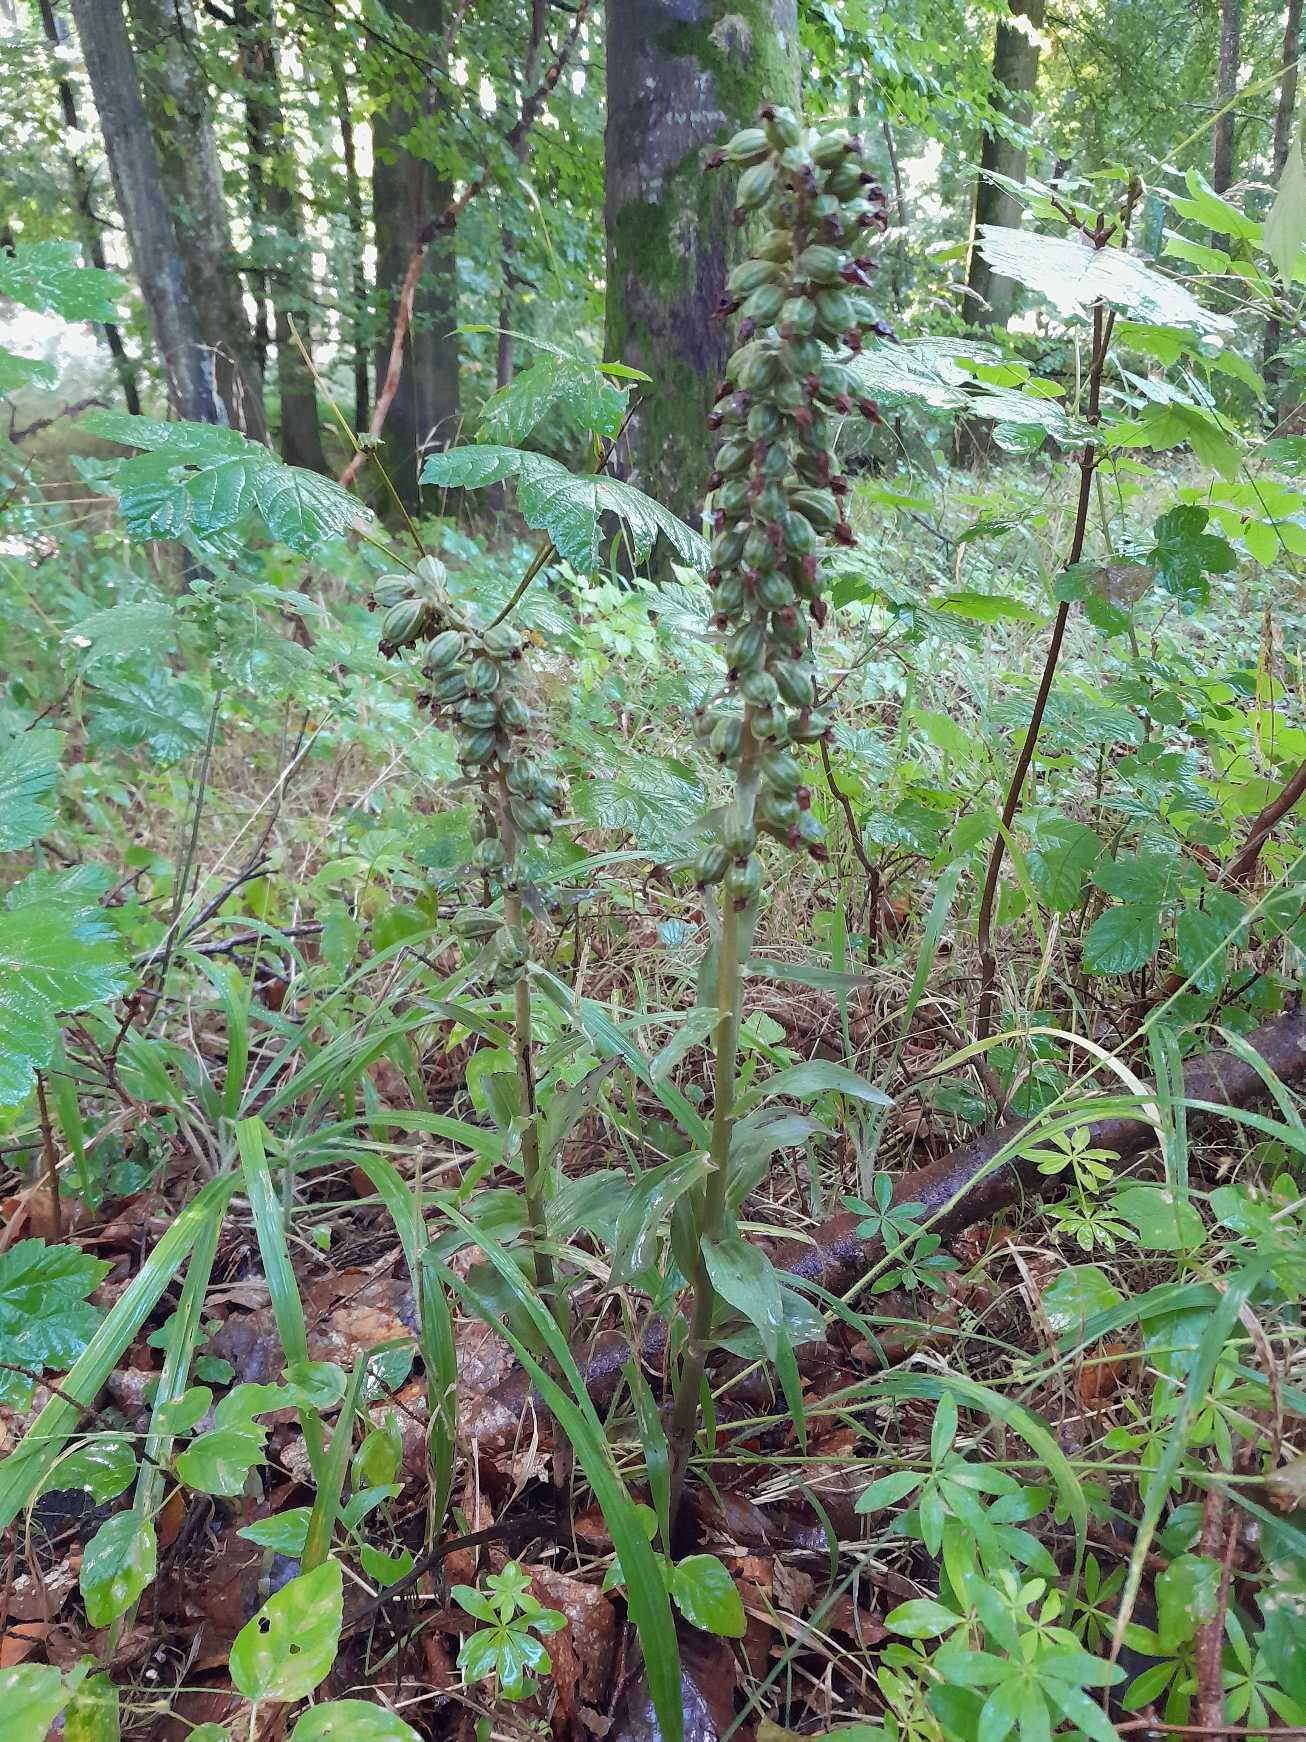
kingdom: Plantae
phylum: Tracheophyta
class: Liliopsida
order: Asparagales
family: Orchidaceae
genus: Epipactis
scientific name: Epipactis purpurata
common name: Tætblomstret hullæbe
